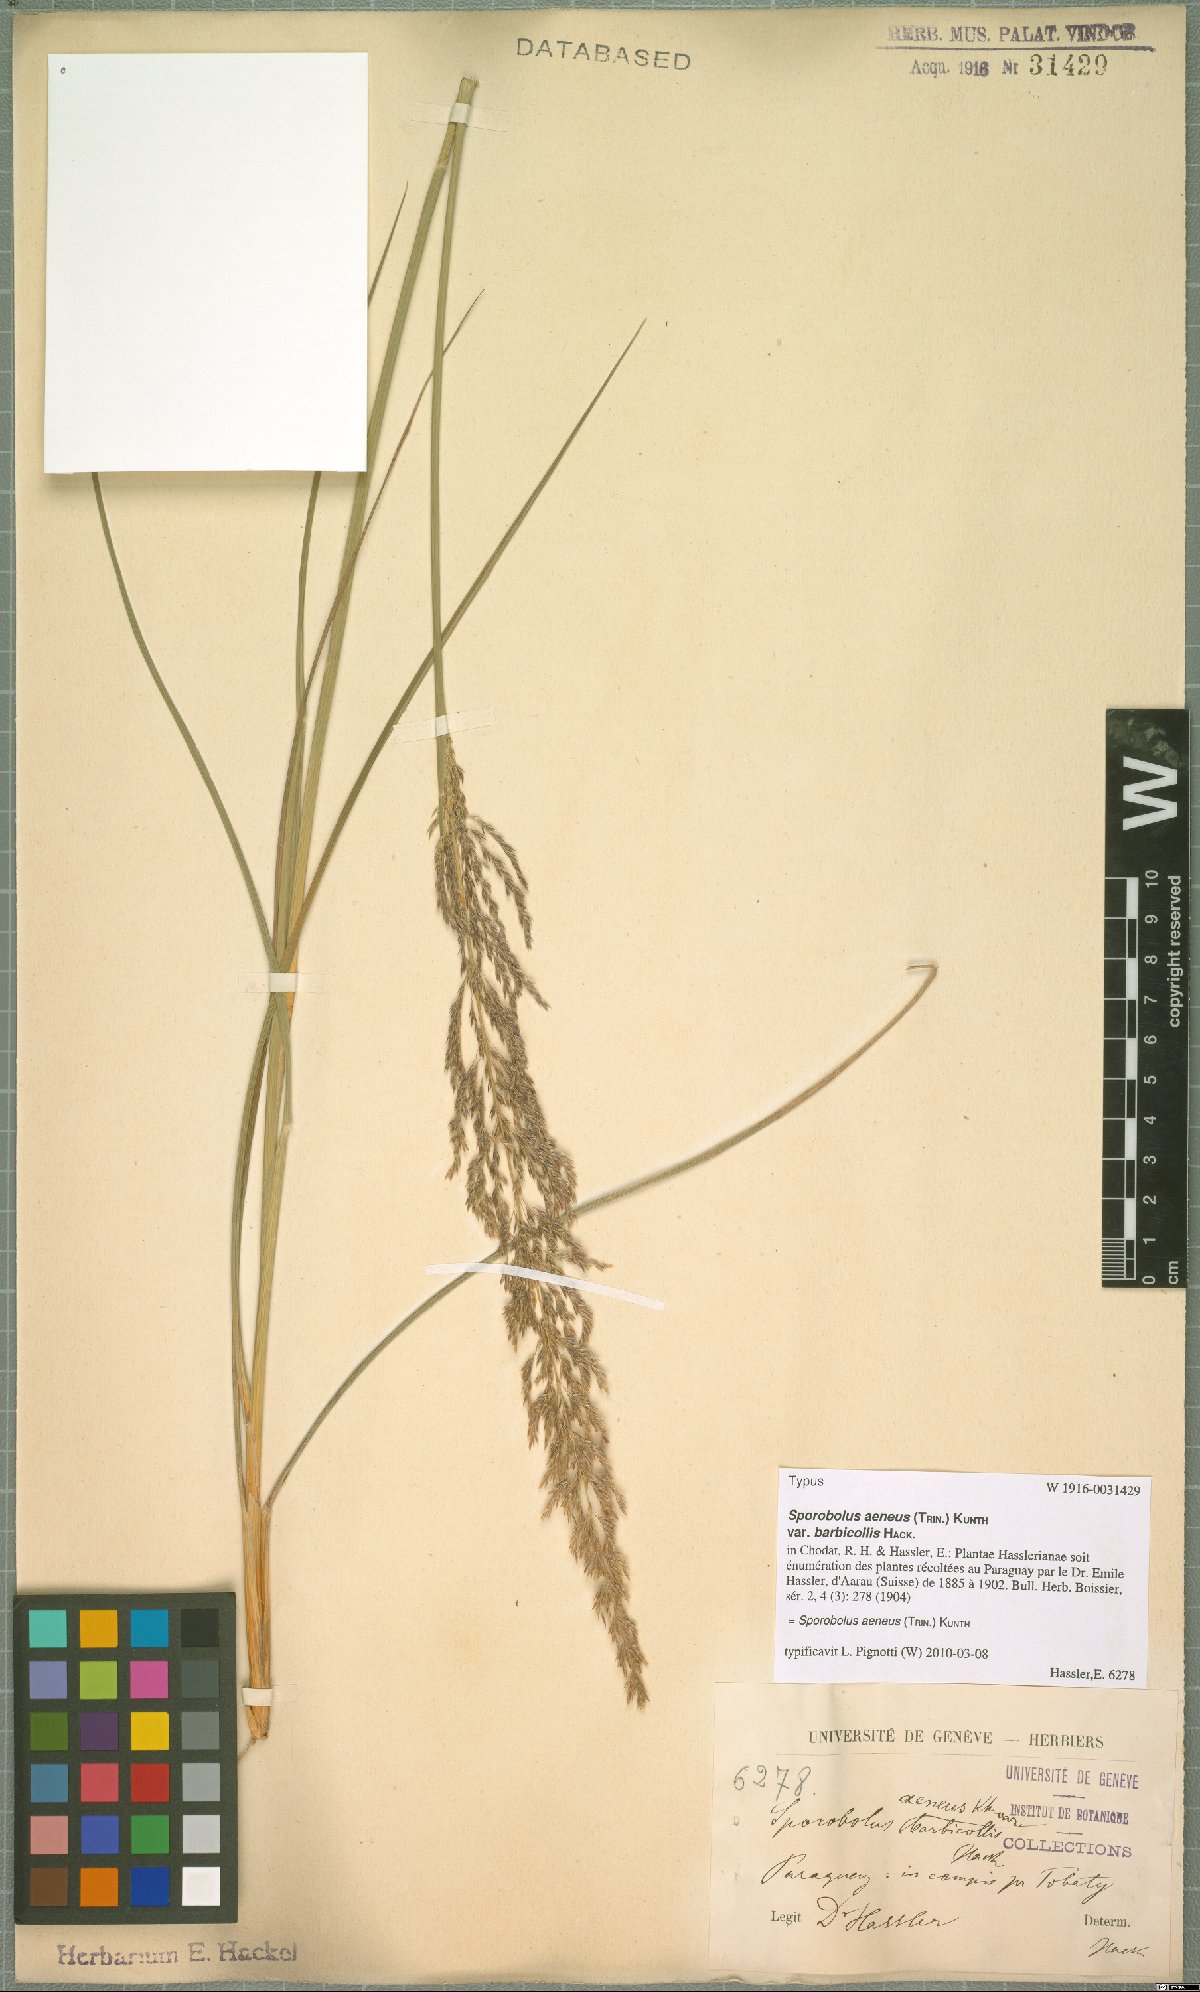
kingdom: Plantae
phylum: Tracheophyta
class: Liliopsida
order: Poales
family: Poaceae
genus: Sporobolus
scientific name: Sporobolus aeneus
